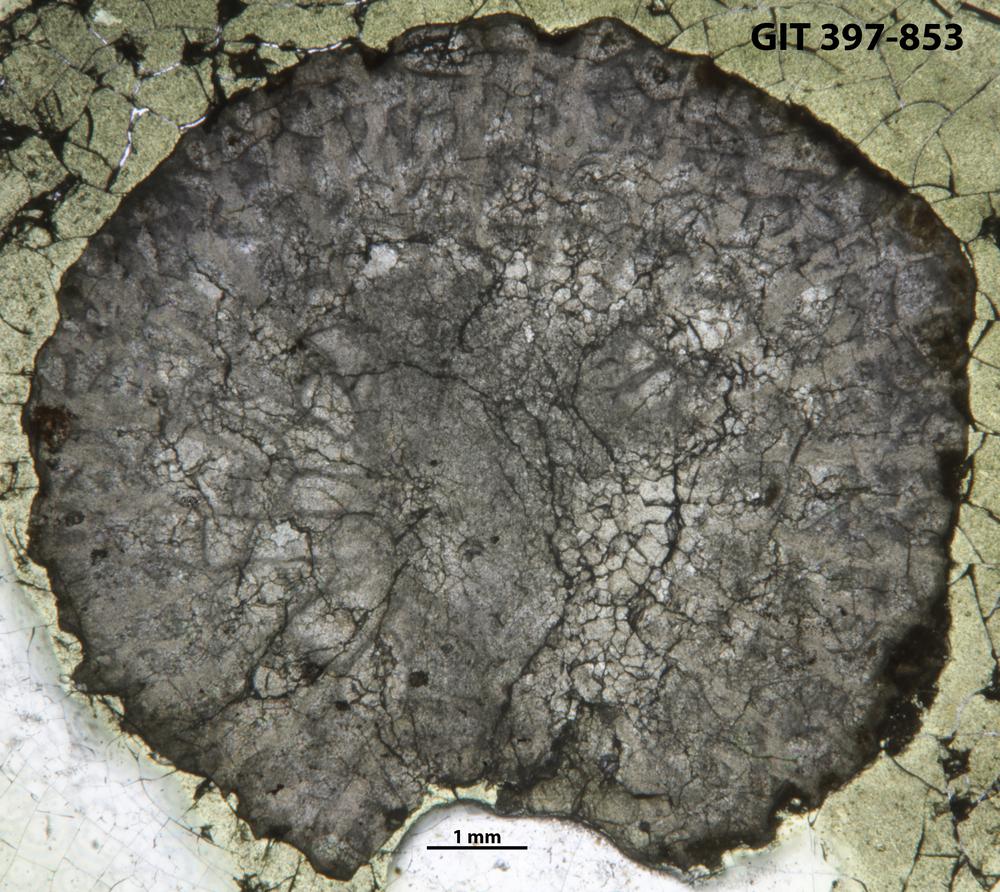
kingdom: Animalia
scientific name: Animalia
